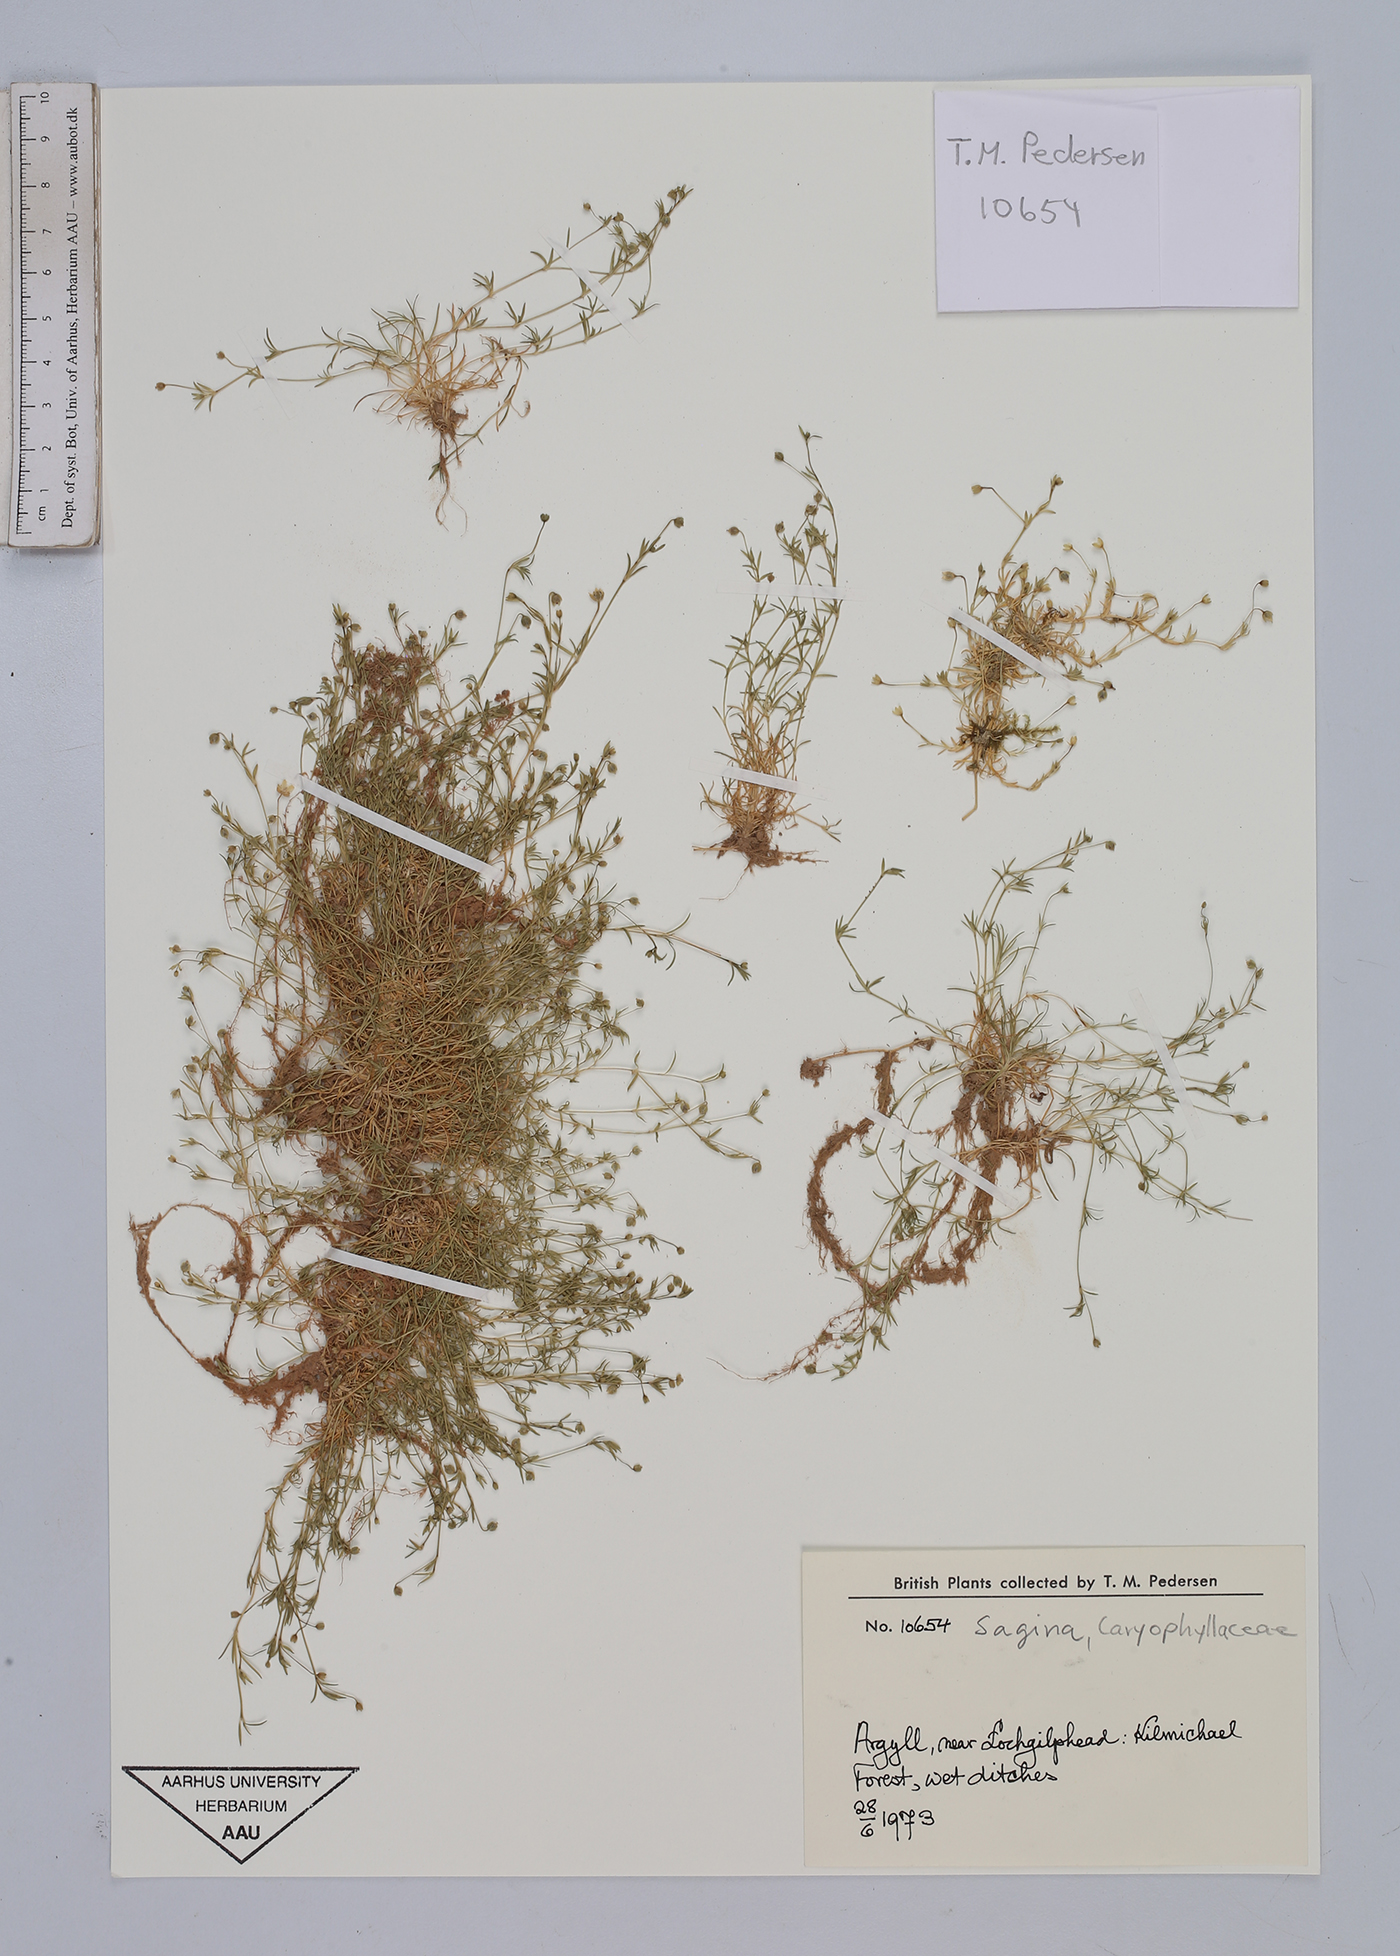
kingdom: Plantae
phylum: Tracheophyta
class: Magnoliopsida
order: Caryophyllales
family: Caryophyllaceae
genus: Sagina
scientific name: Sagina
